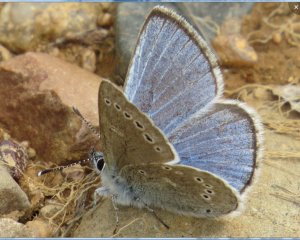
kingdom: Animalia
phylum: Arthropoda
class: Insecta
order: Lepidoptera
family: Lycaenidae
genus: Glaucopsyche
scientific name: Glaucopsyche lygdamus
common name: Silvery Blue
